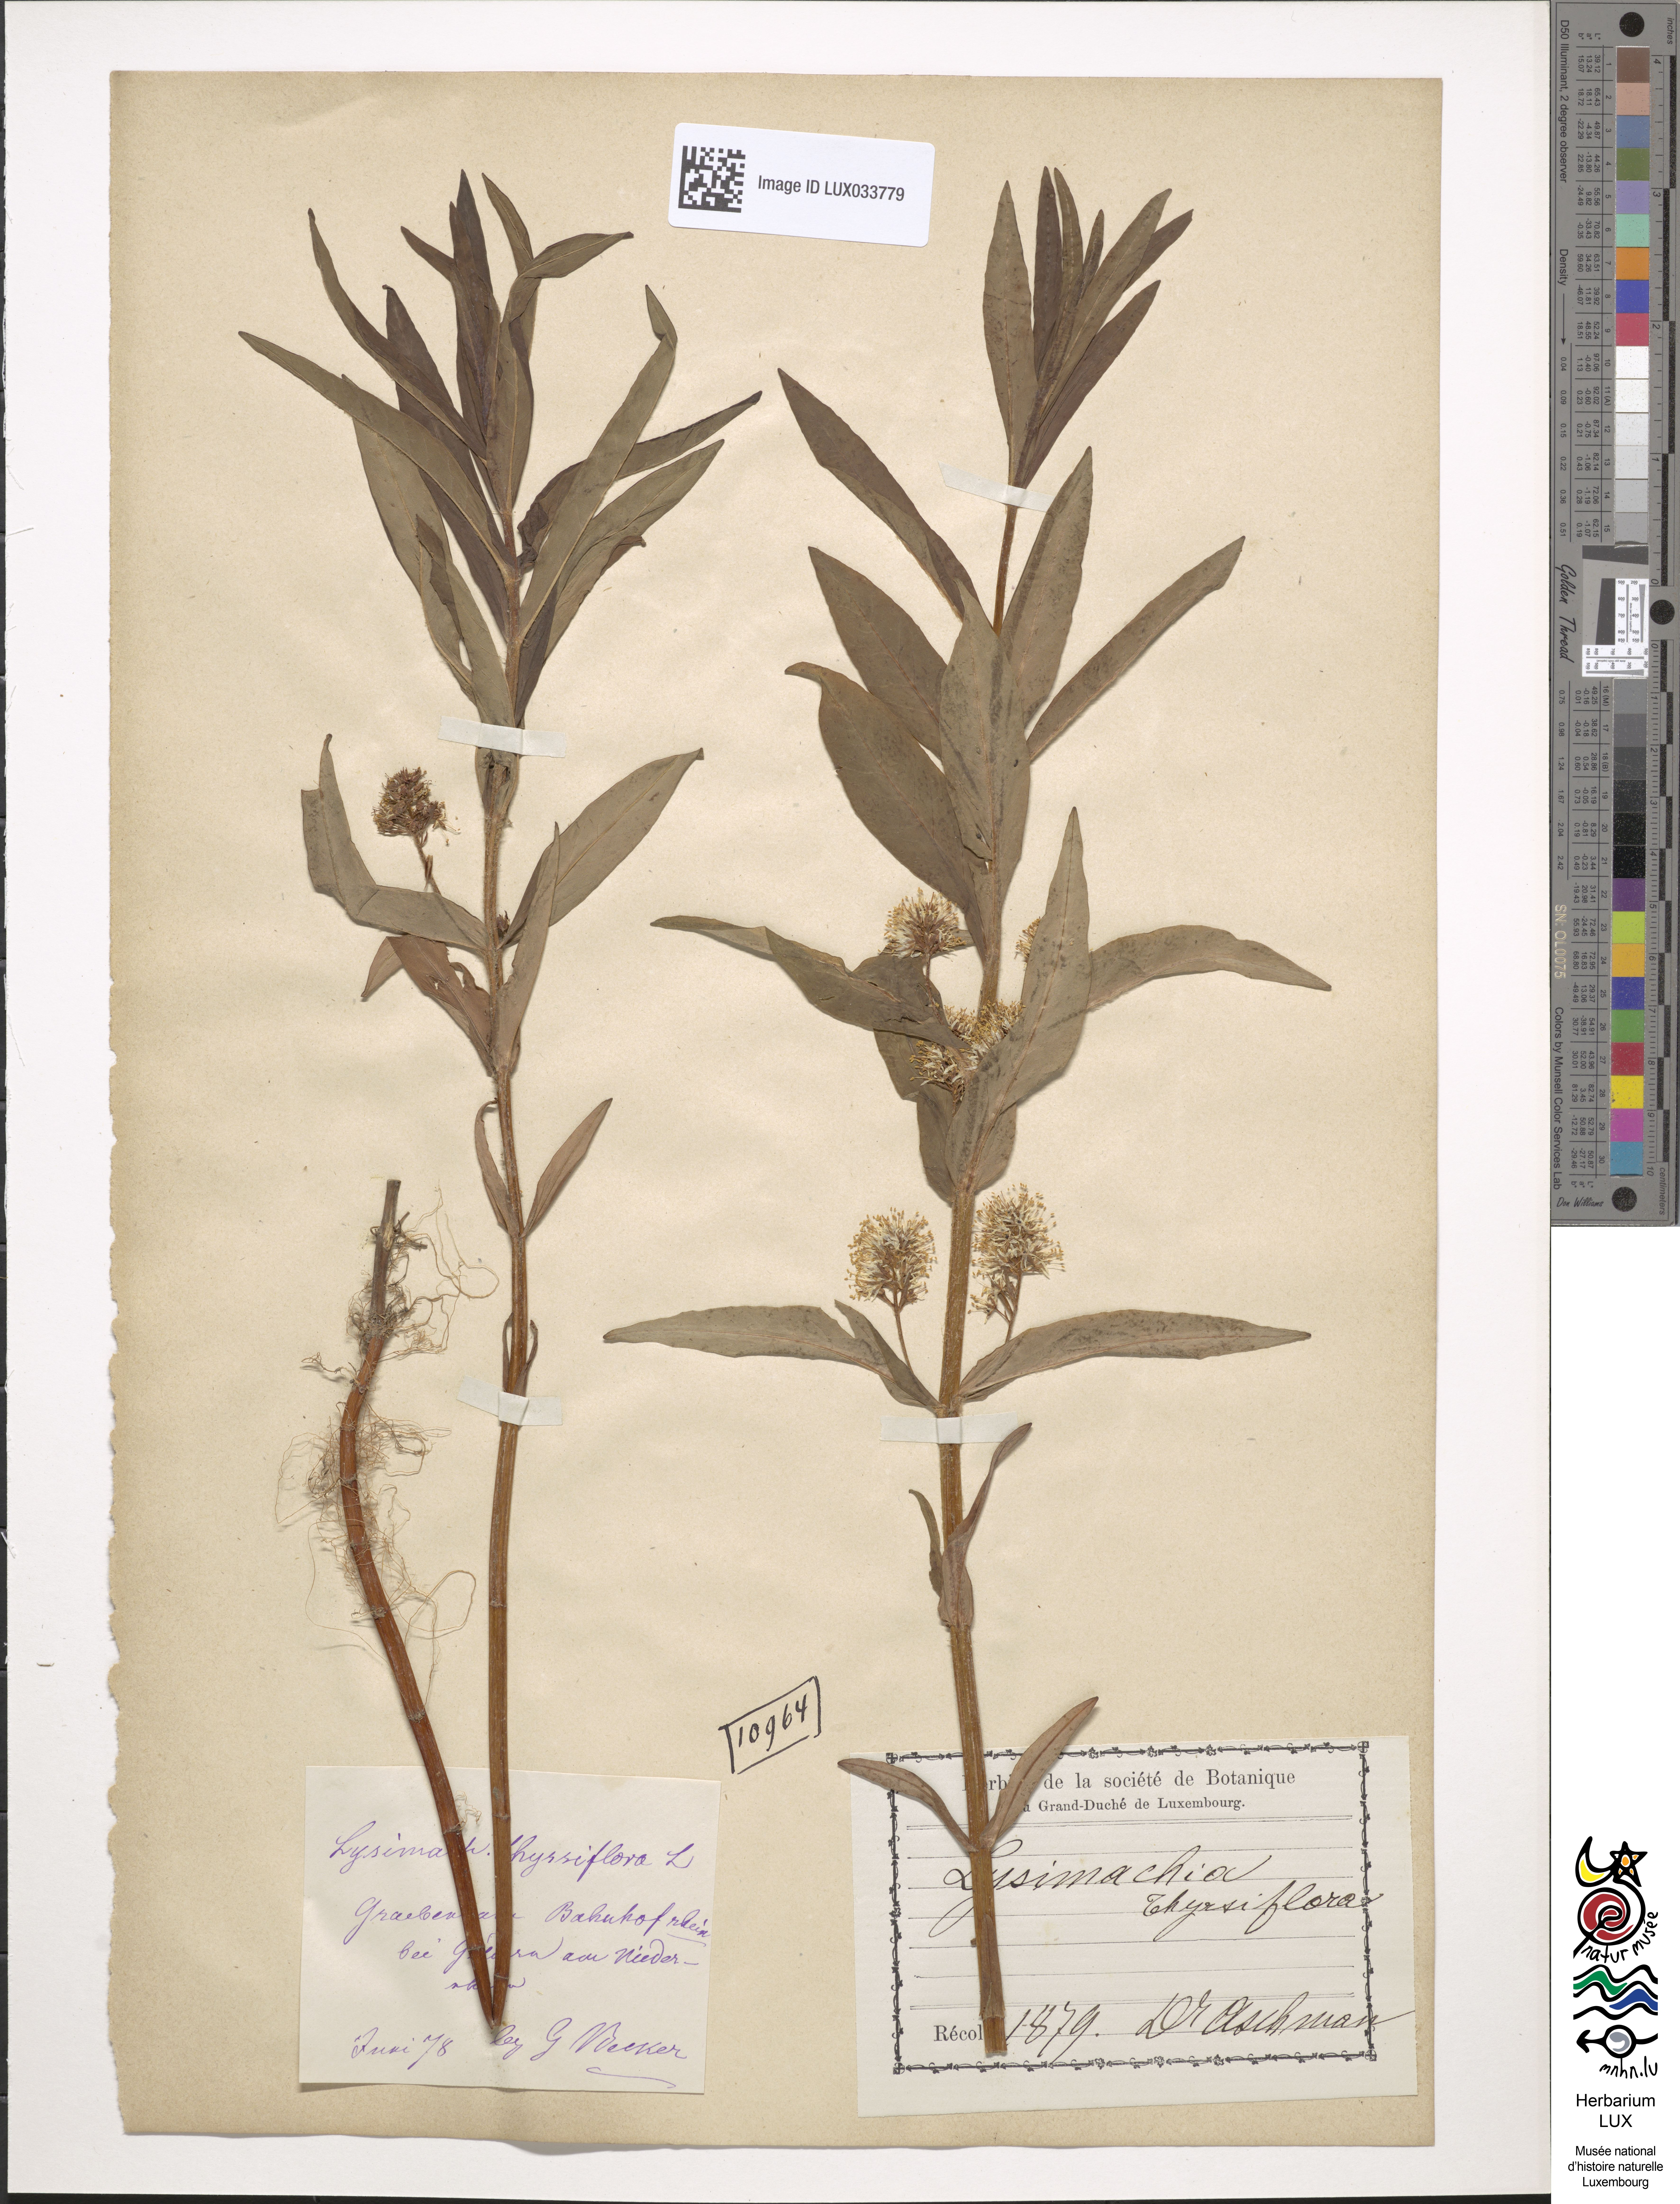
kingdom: Plantae
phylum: Tracheophyta
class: Magnoliopsida
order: Ericales
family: Primulaceae
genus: Lysimachia
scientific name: Lysimachia thyrsiflora
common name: Tufted loosestrife
